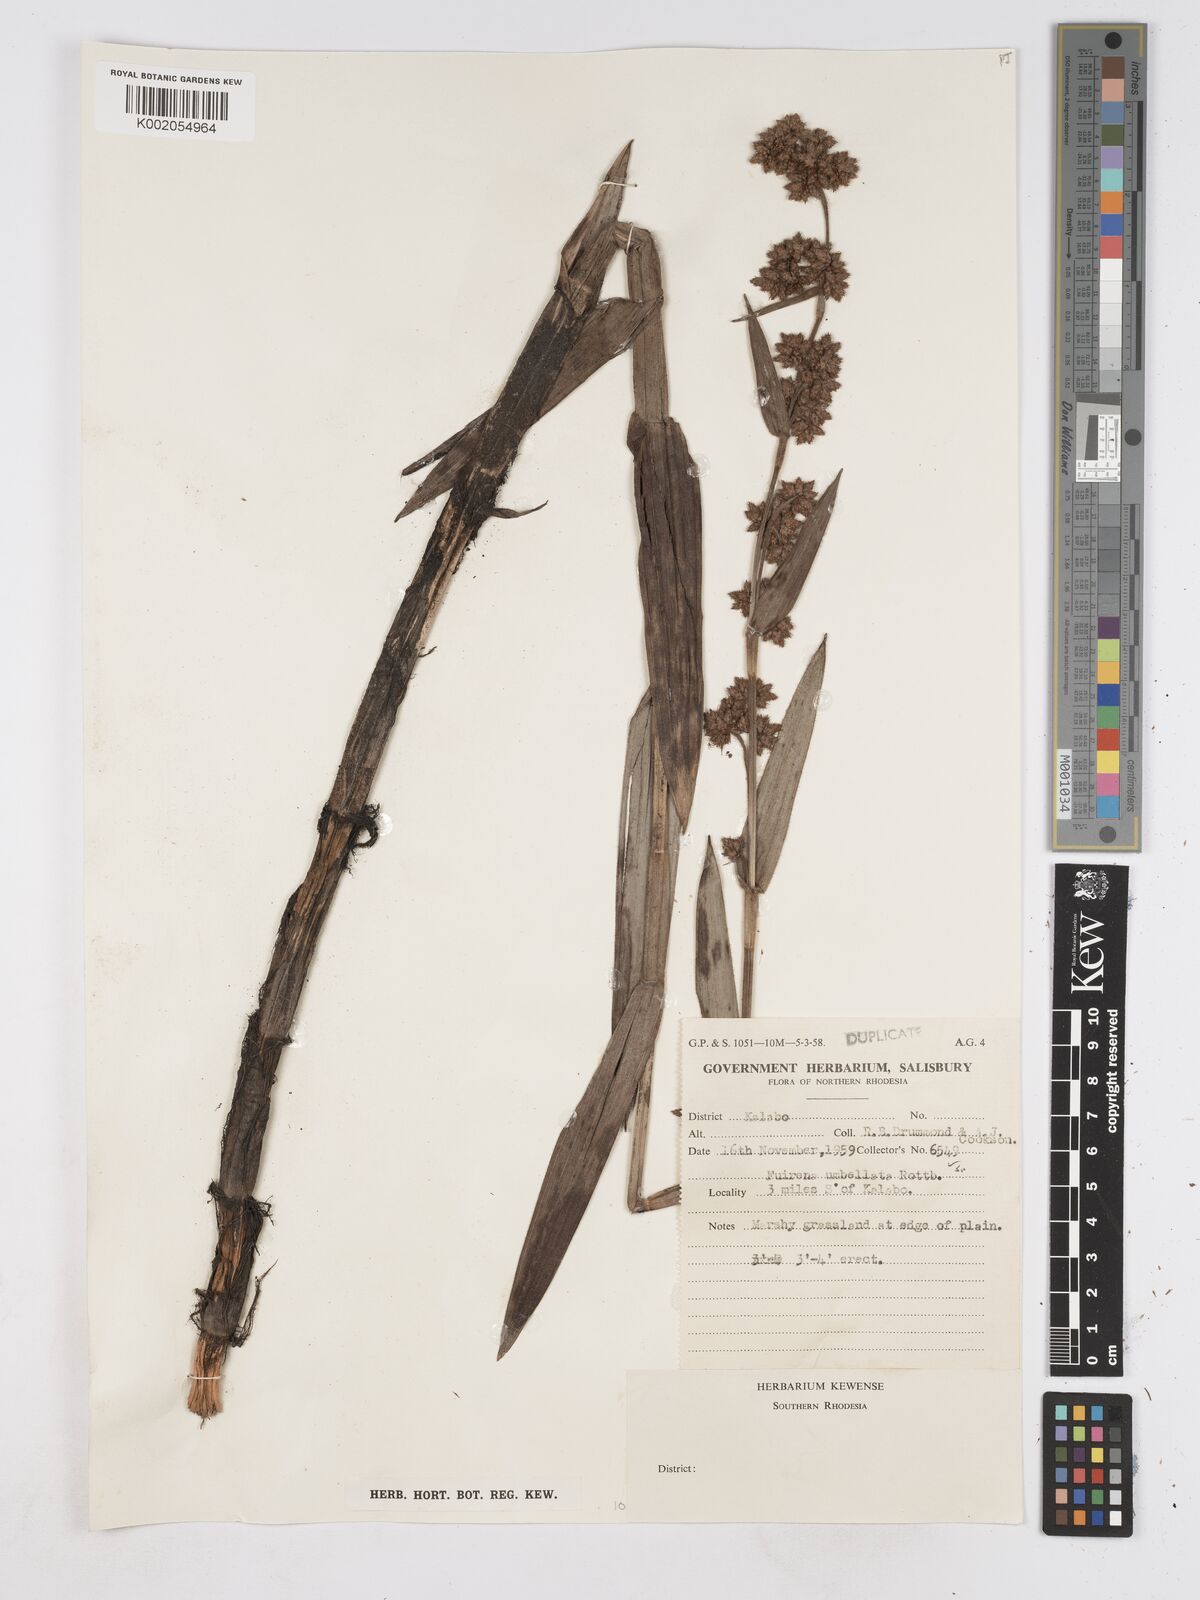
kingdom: Plantae
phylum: Tracheophyta
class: Liliopsida
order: Poales
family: Cyperaceae
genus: Fuirena
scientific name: Fuirena umbellata
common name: Yefen
